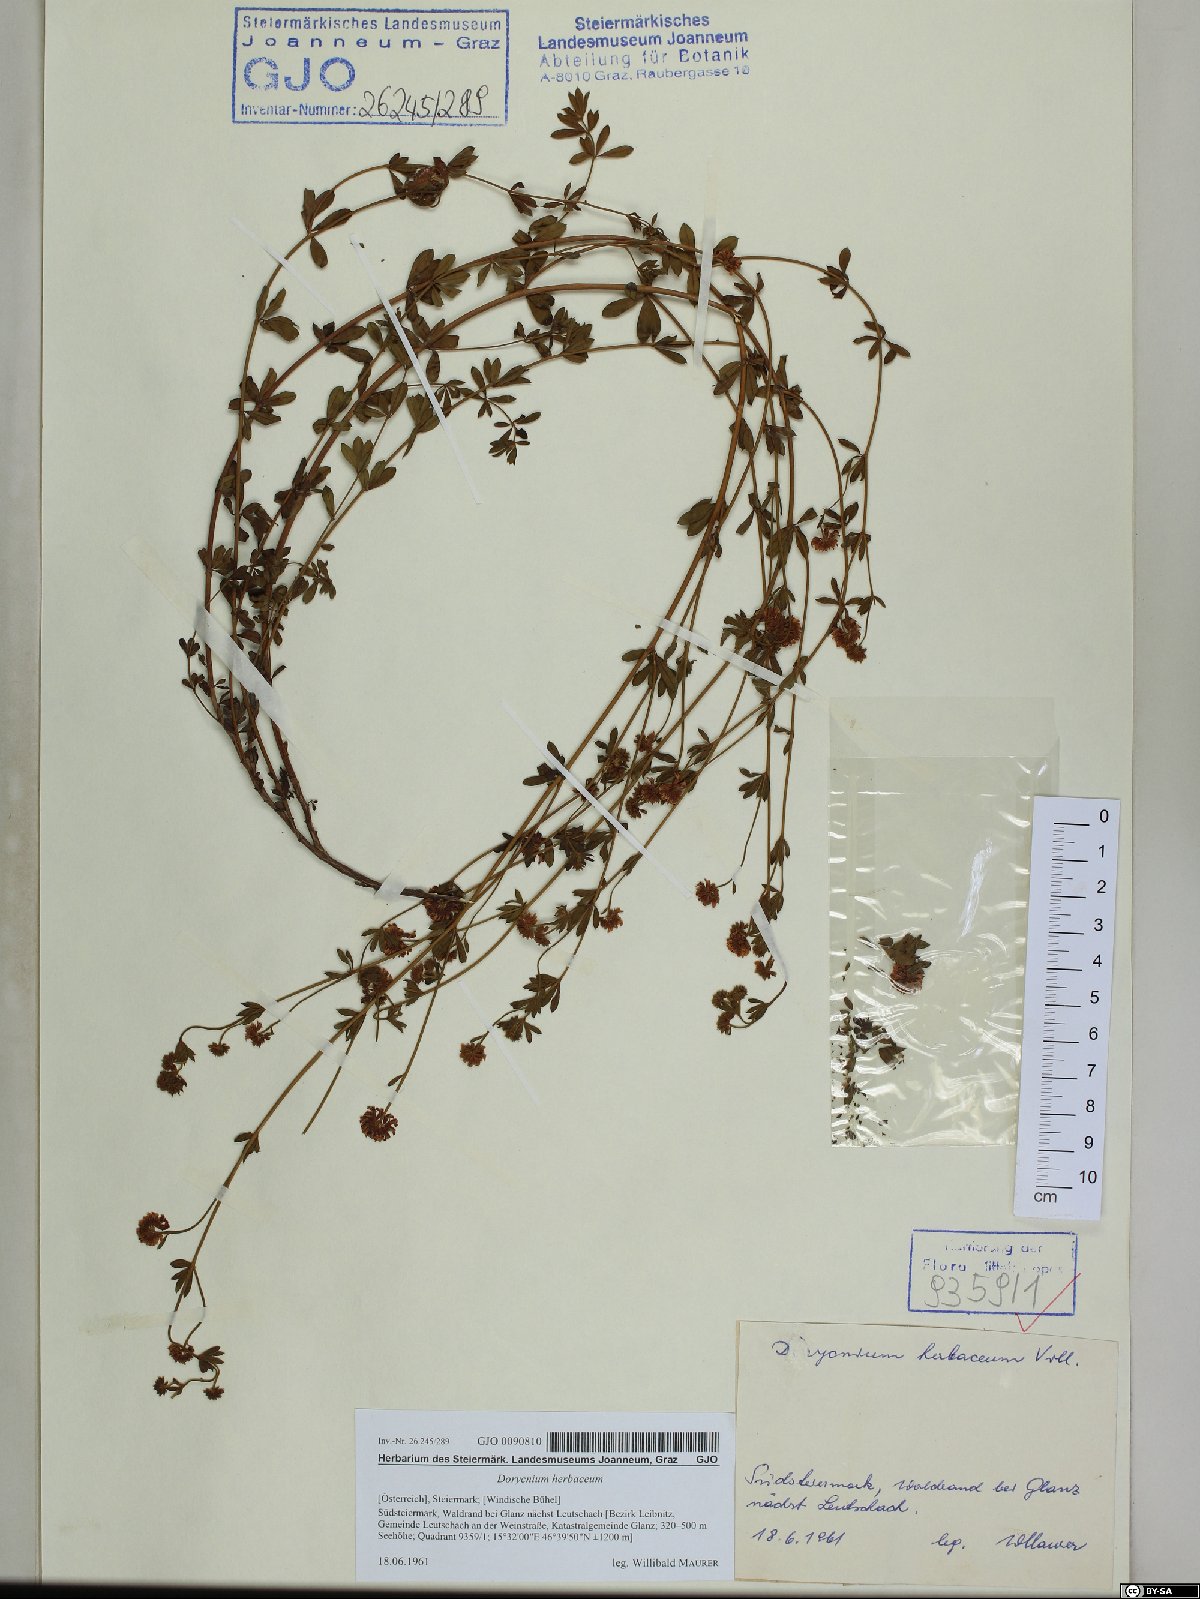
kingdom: Plantae
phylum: Tracheophyta
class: Magnoliopsida
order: Fabales
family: Fabaceae
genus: Lotus
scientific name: Lotus herbaceus
